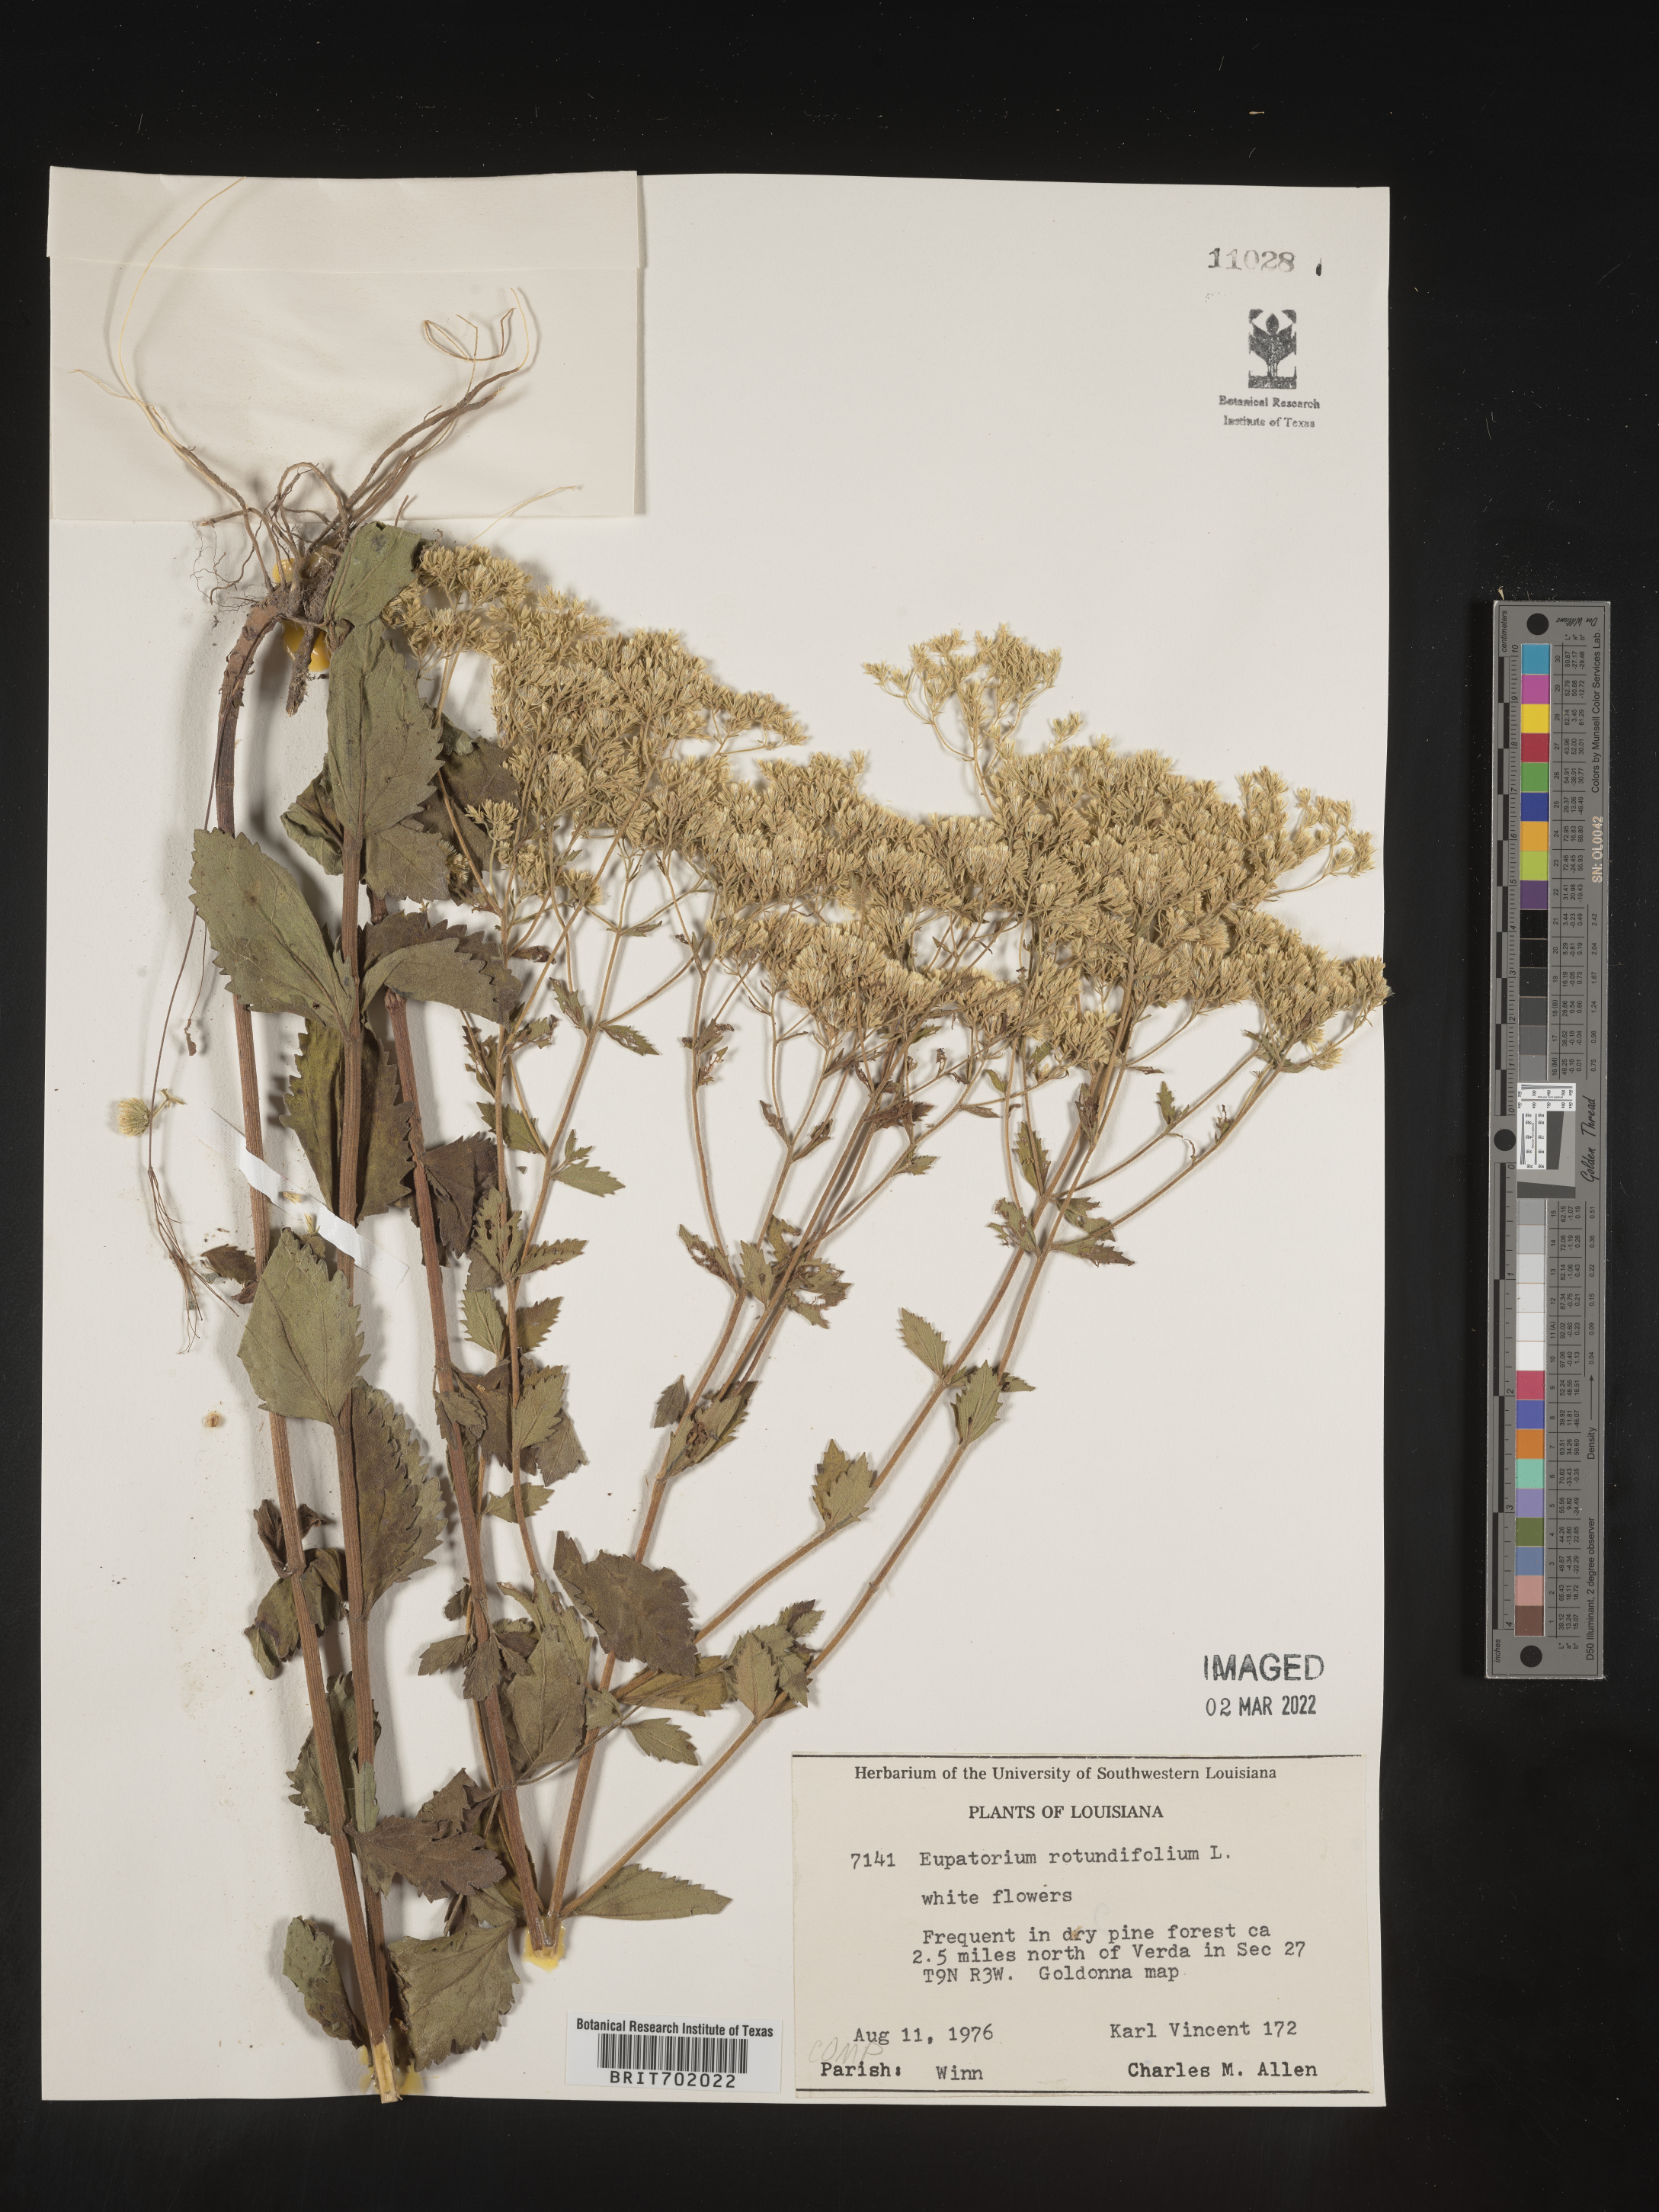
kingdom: Plantae
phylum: Tracheophyta
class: Magnoliopsida
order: Asterales
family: Asteraceae
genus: Eupatorium
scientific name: Eupatorium rotundifolium
